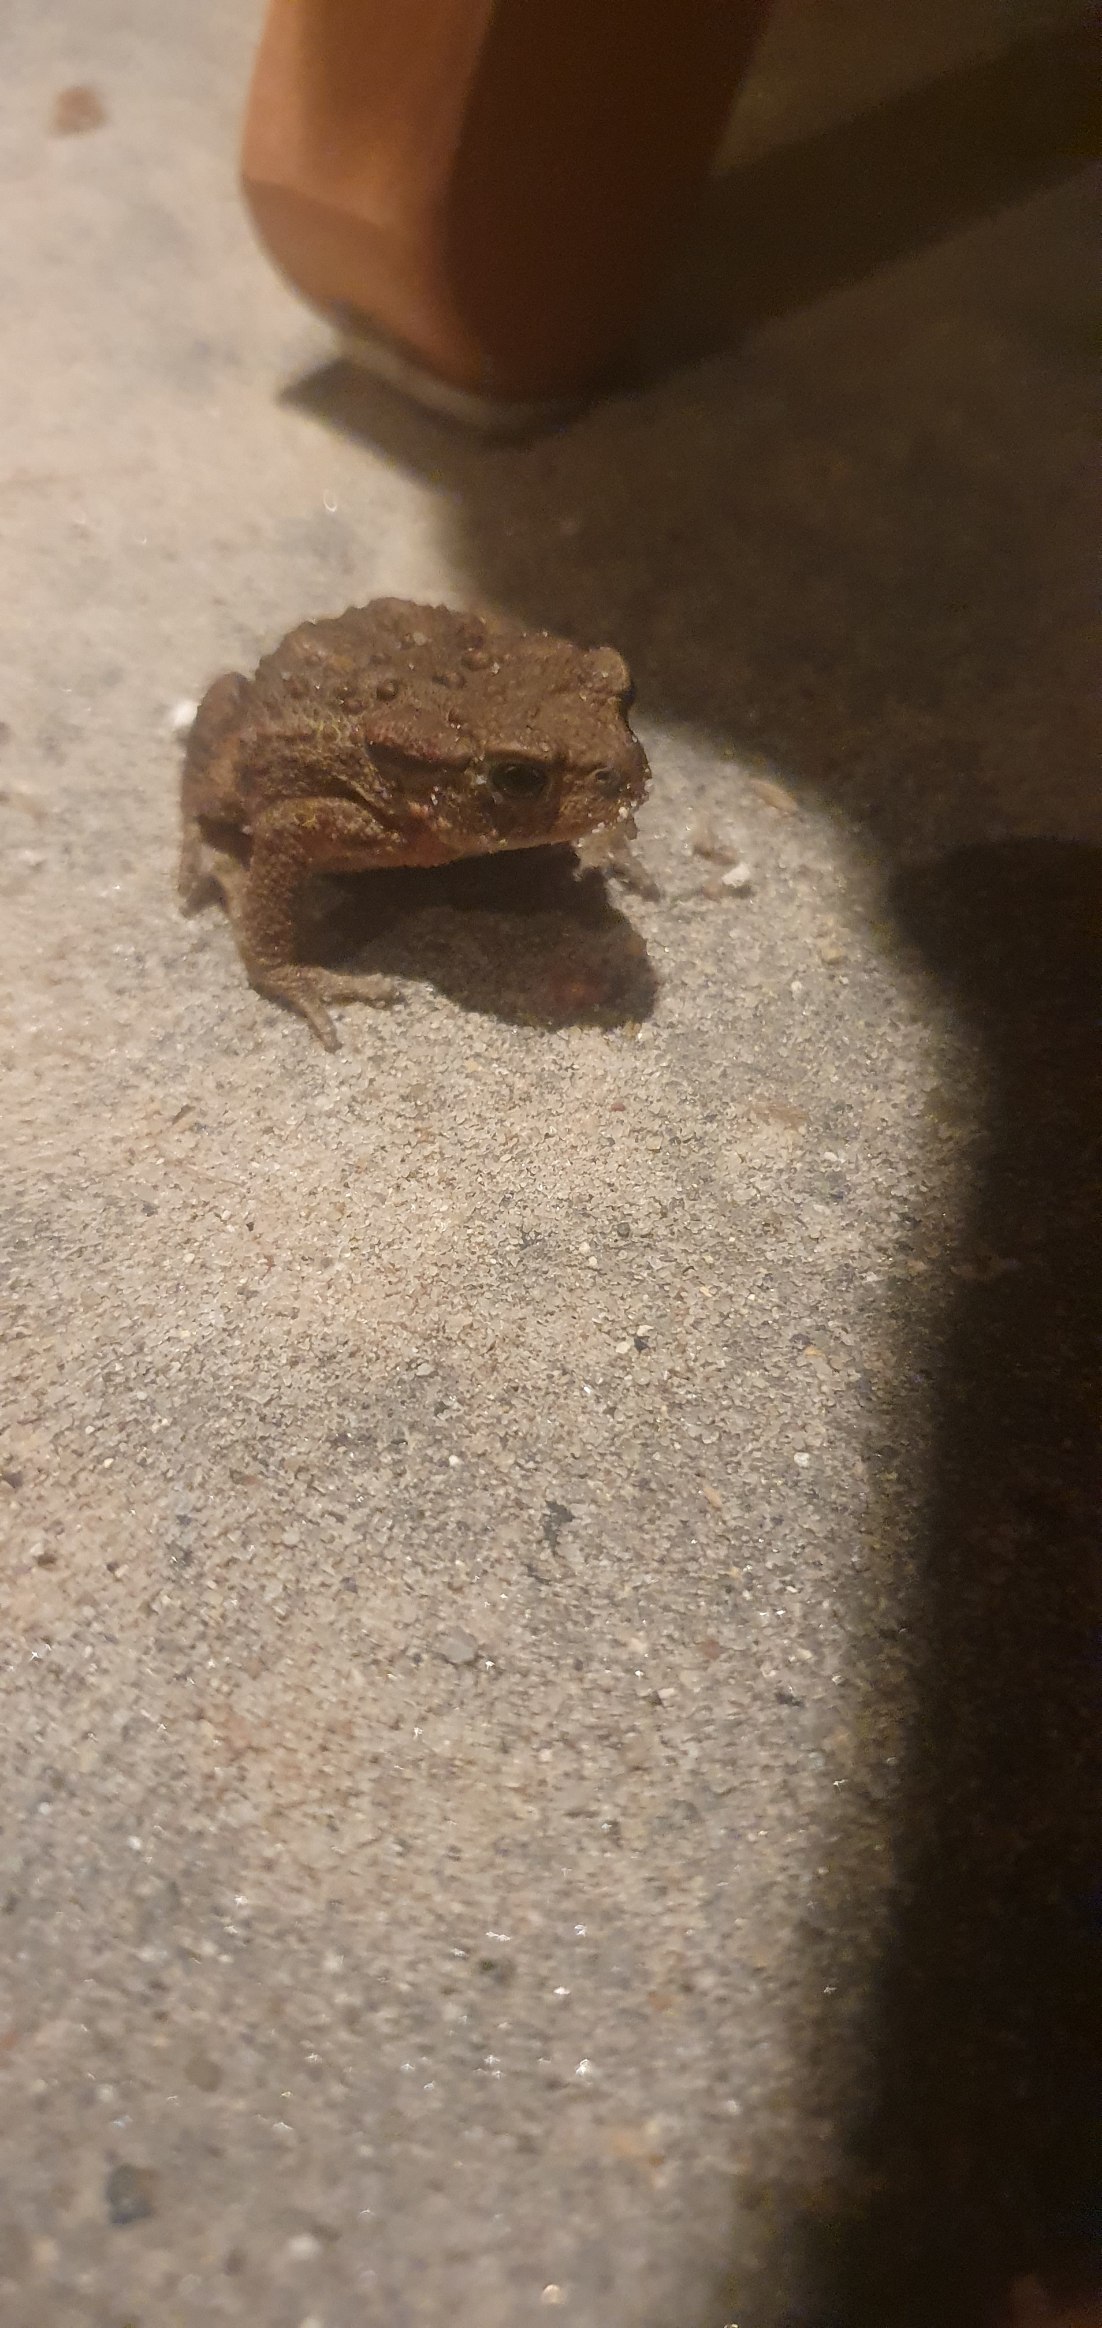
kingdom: Animalia
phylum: Chordata
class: Amphibia
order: Anura
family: Bufonidae
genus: Bufo
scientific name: Bufo bufo
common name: Skrubtudse
